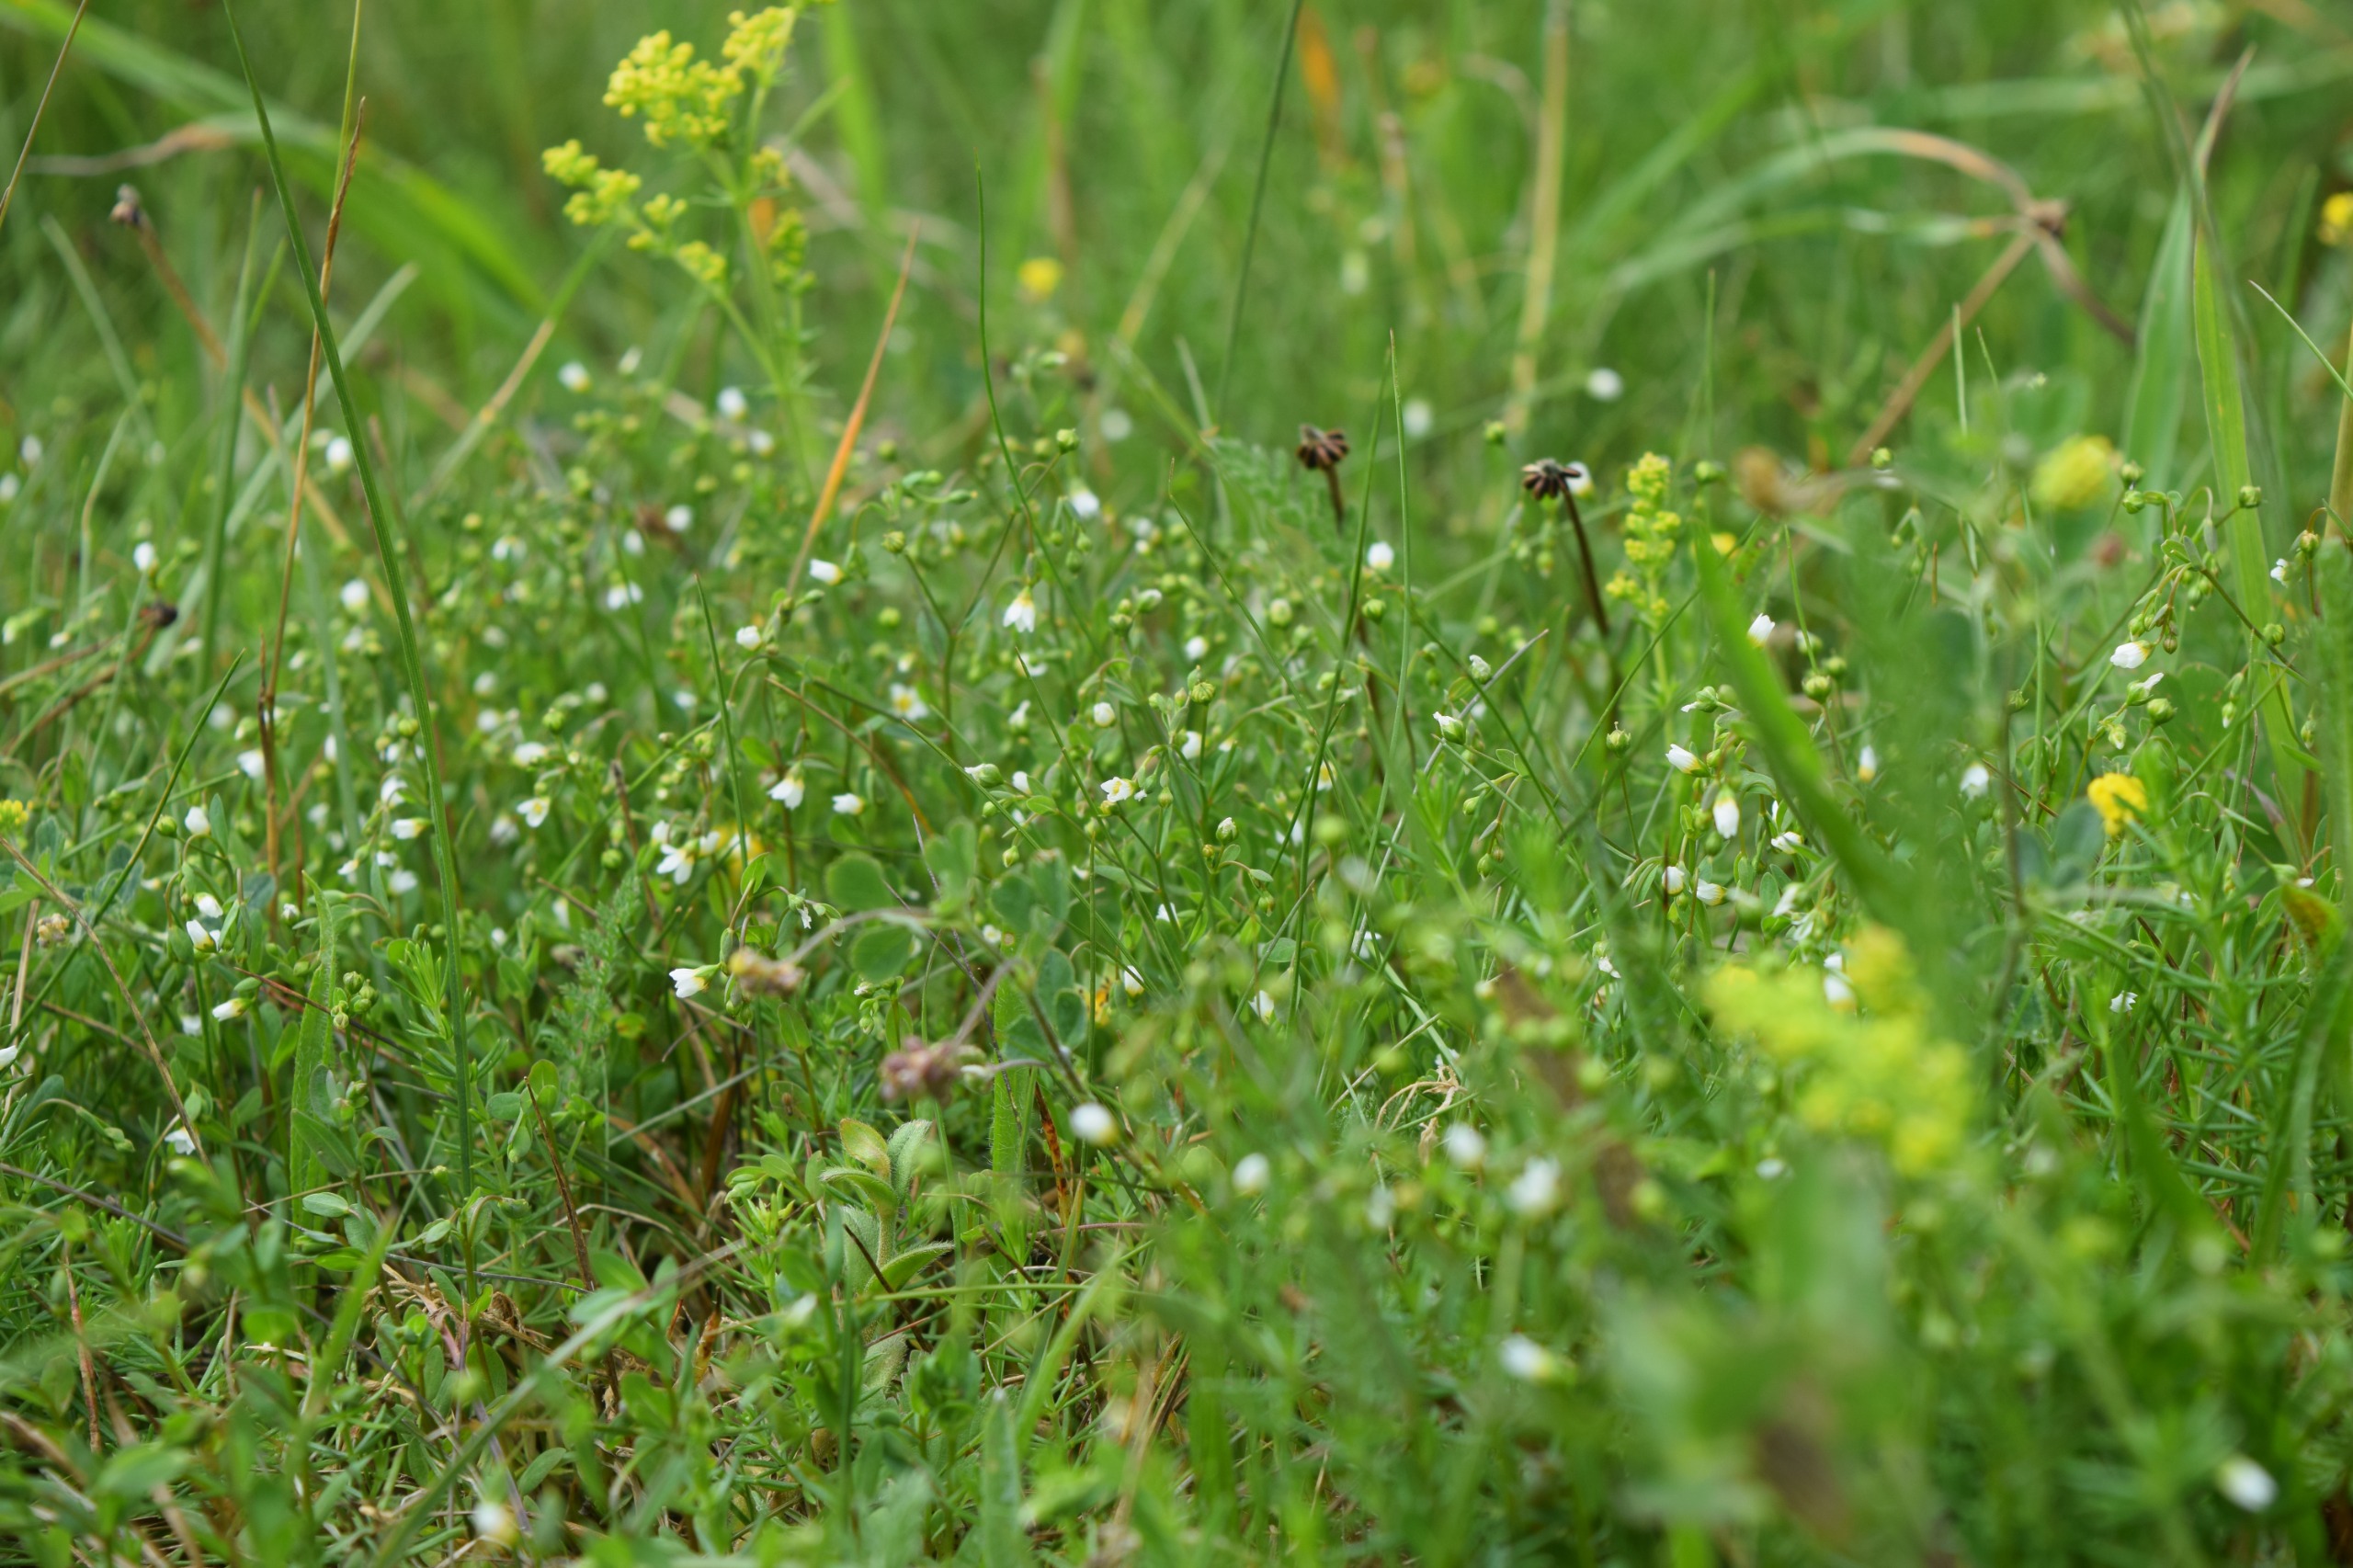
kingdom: Plantae
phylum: Tracheophyta
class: Magnoliopsida
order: Malpighiales
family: Linaceae
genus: Linum
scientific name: Linum catharticum
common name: Vild hør
